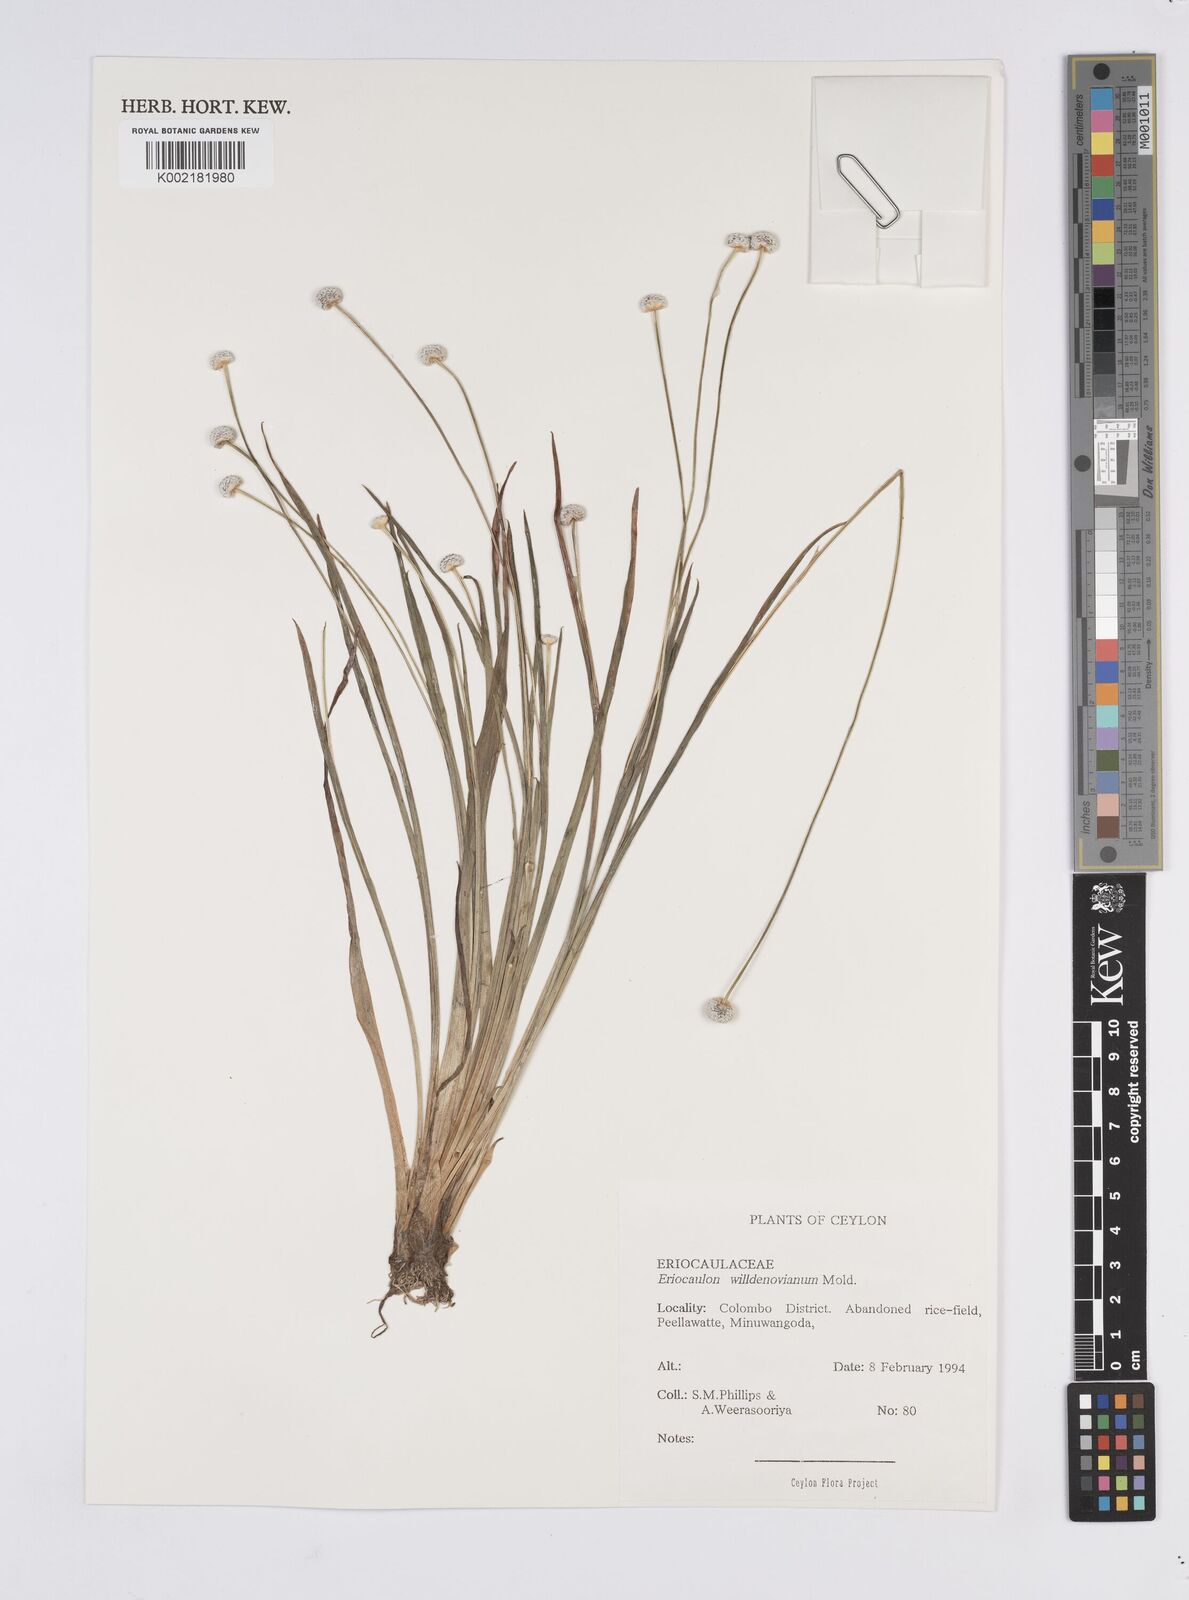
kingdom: Plantae
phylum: Tracheophyta
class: Liliopsida
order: Poales
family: Eriocaulaceae
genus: Eriocaulon
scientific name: Eriocaulon willdenovianum
